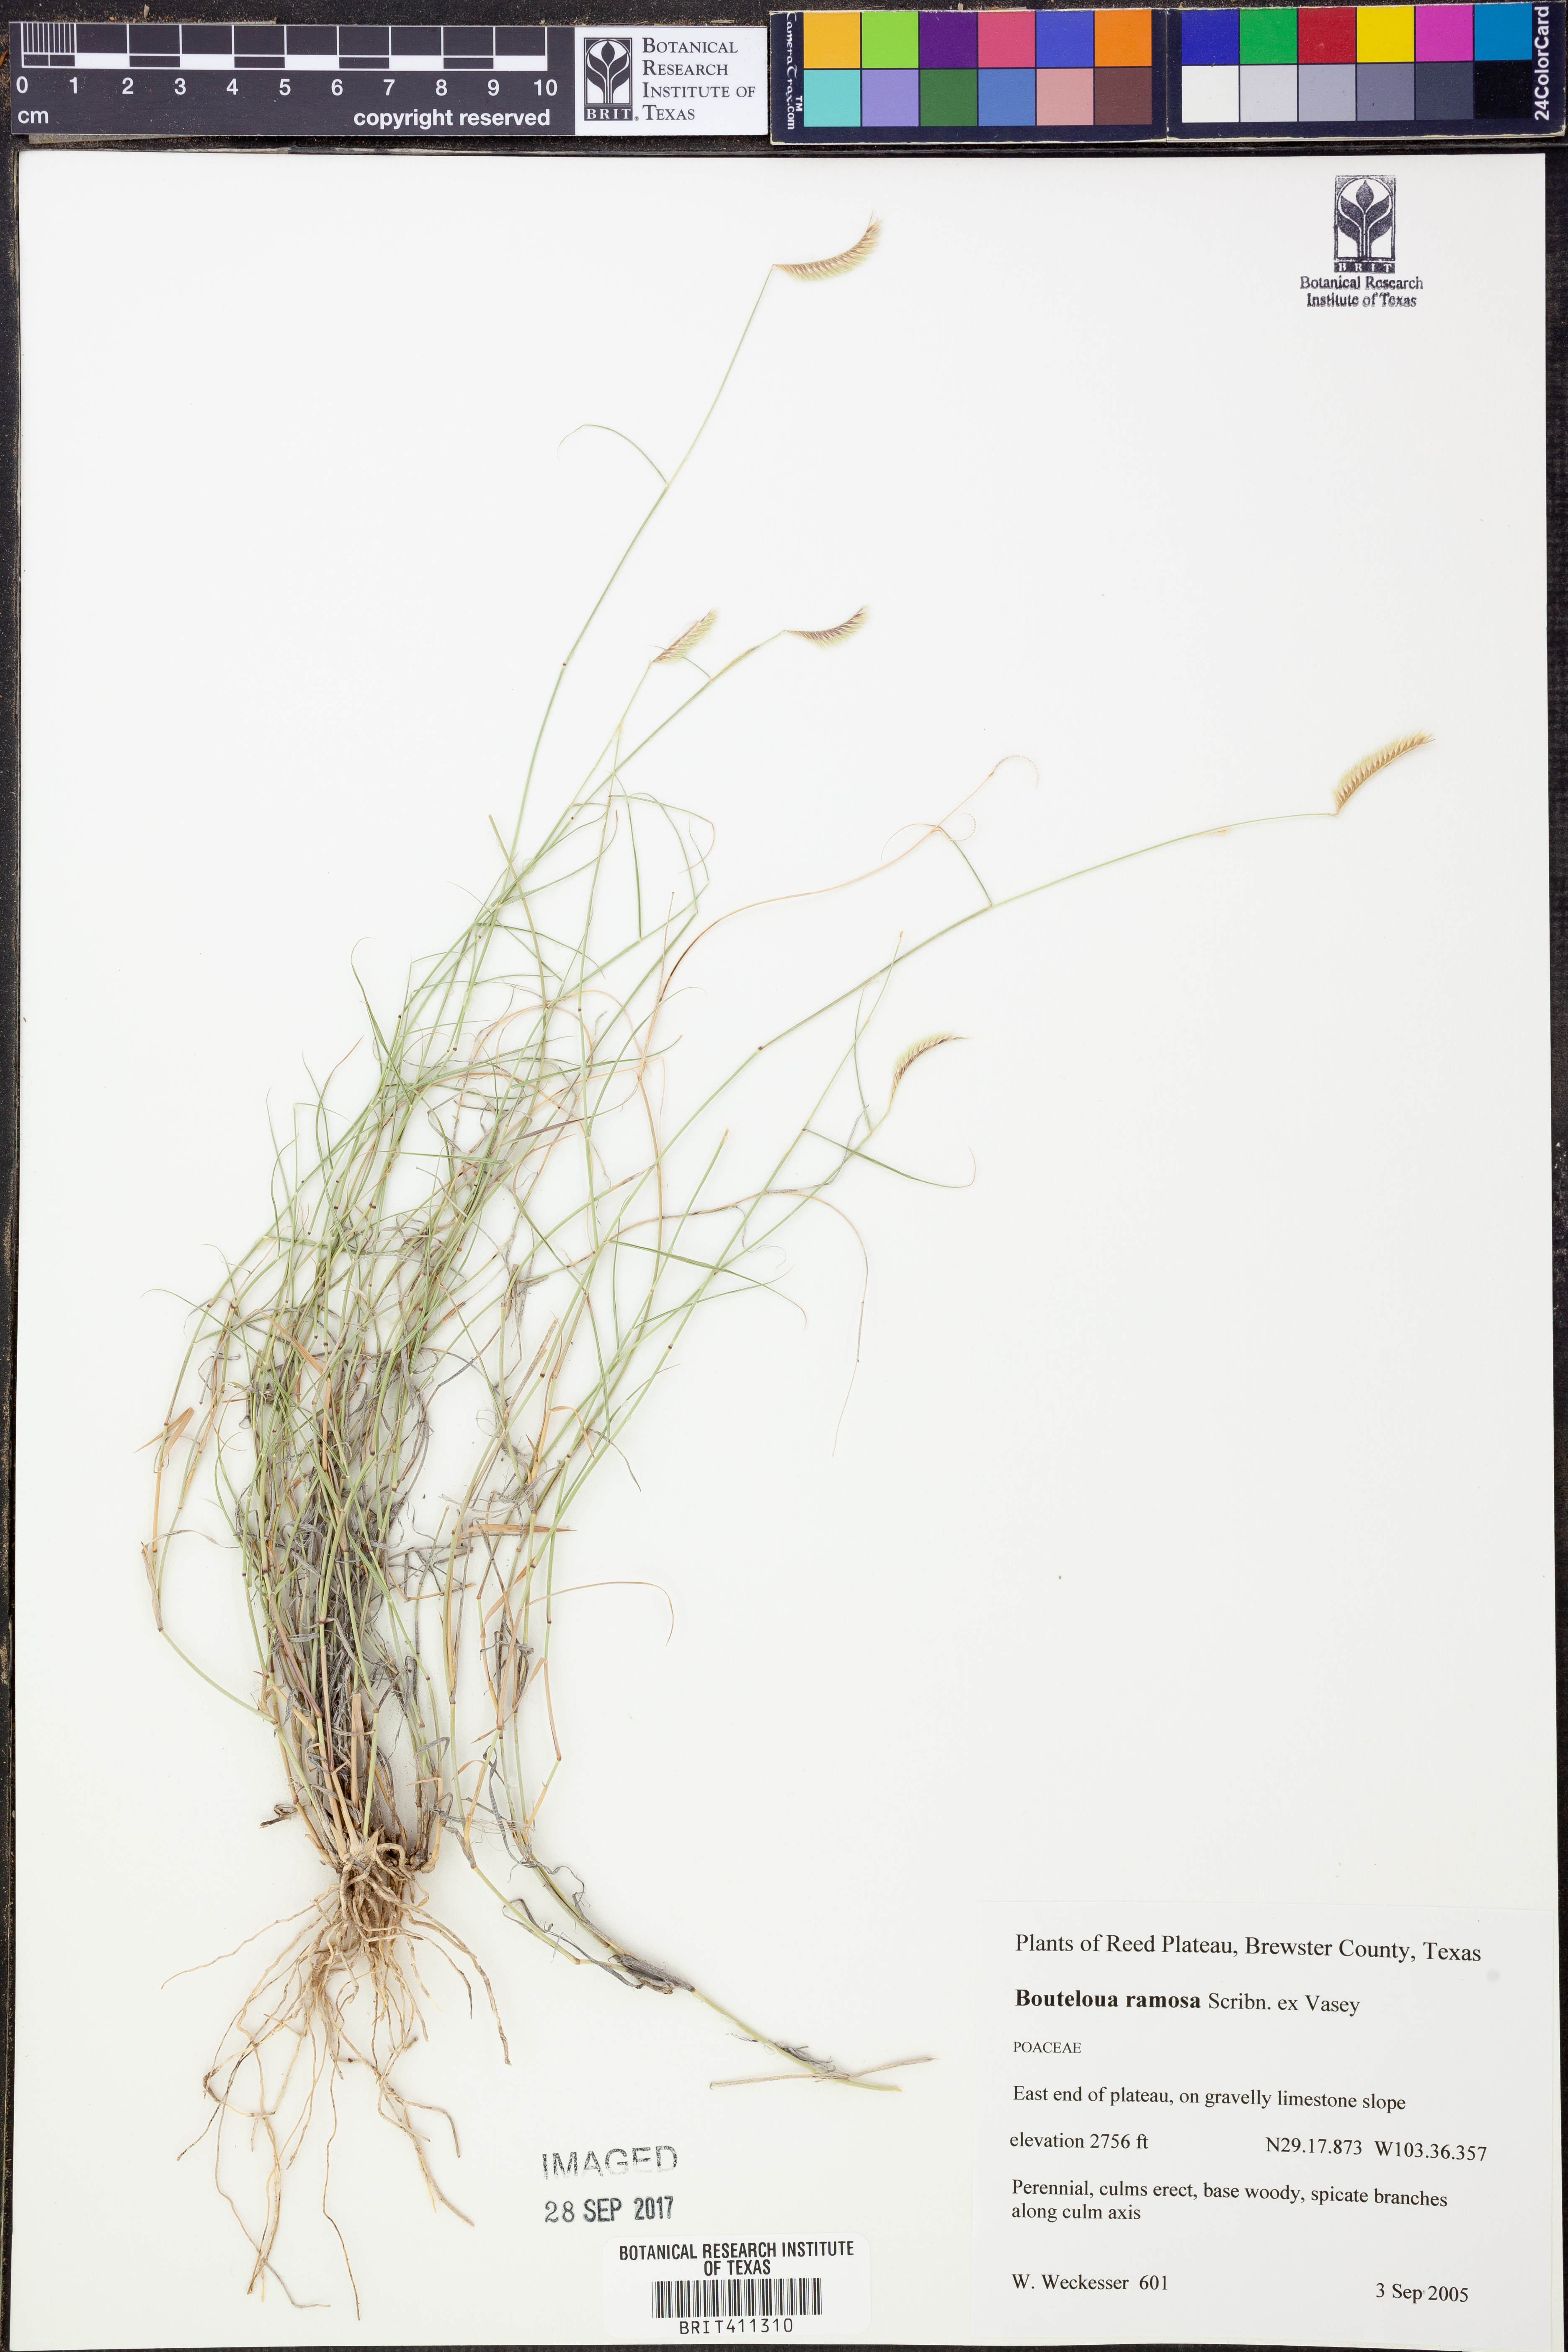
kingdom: Plantae
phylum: Tracheophyta
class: Liliopsida
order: Poales
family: Poaceae
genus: Bouteloua
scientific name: Bouteloua ramosa
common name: Chino grama
